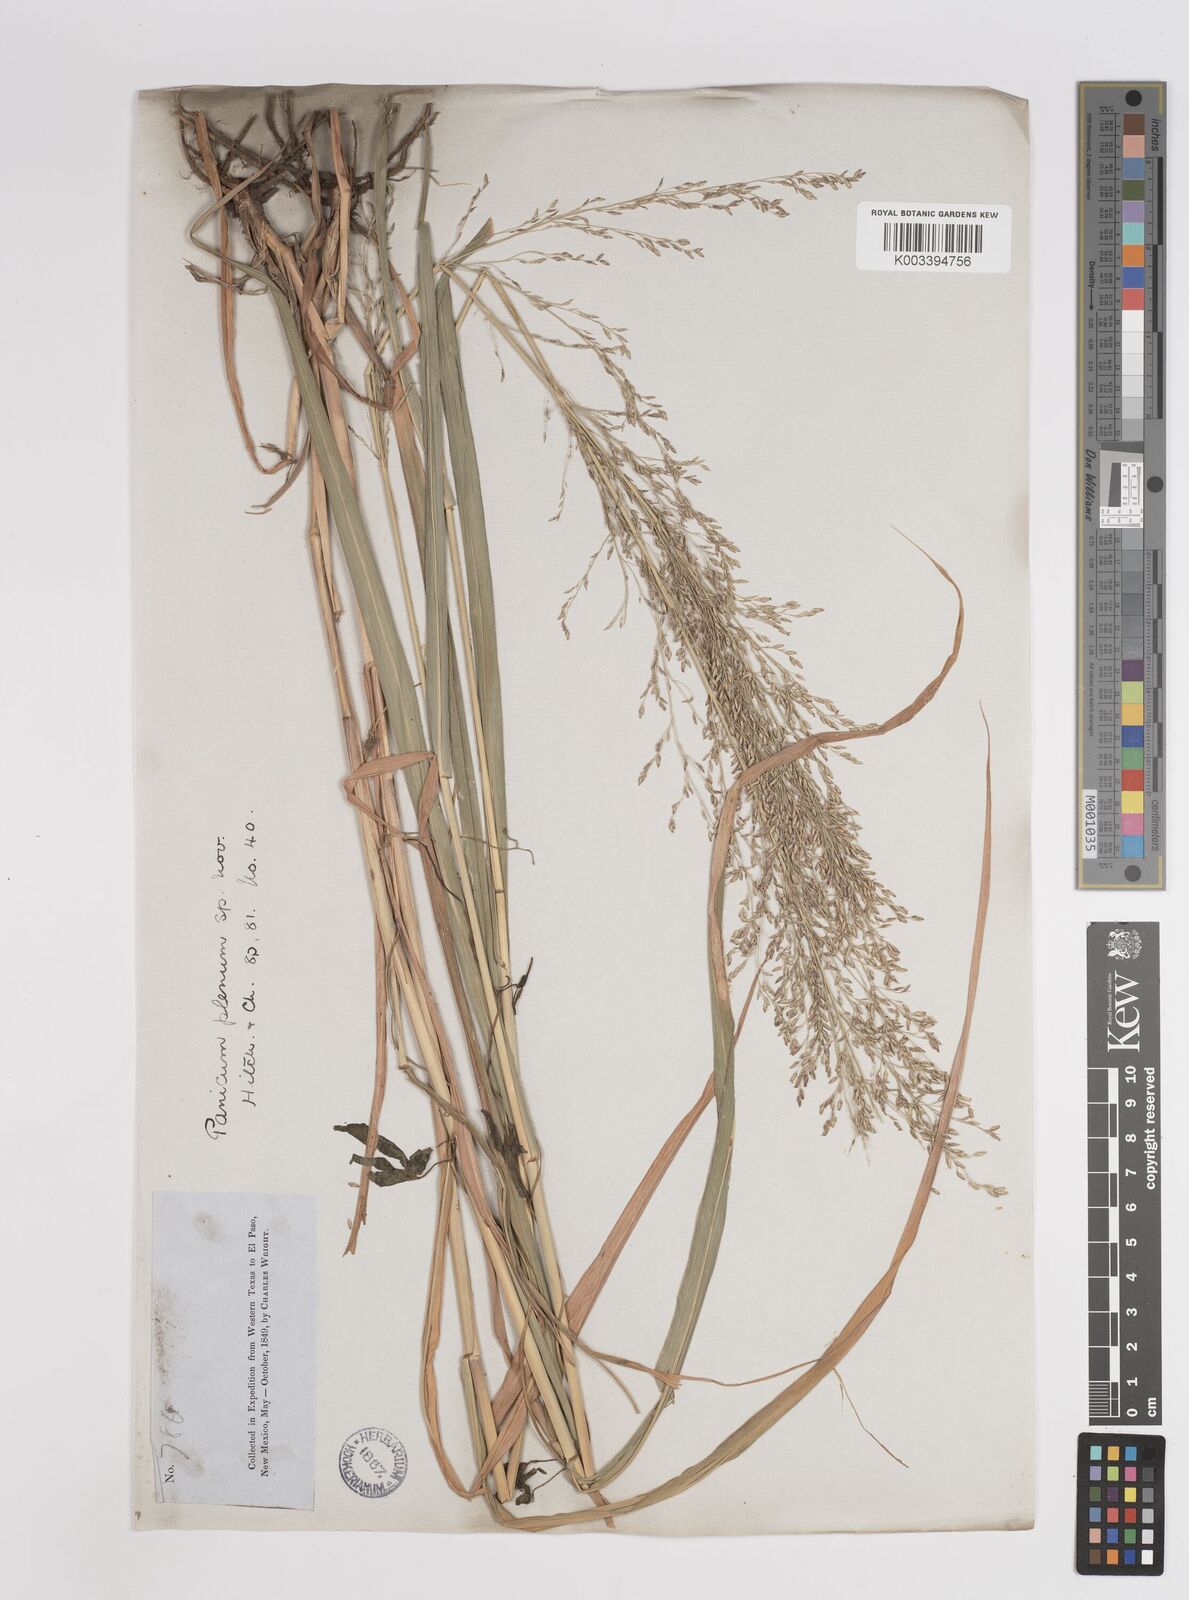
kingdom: Plantae
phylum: Tracheophyta
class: Liliopsida
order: Poales
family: Poaceae
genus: Panicum
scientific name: Panicum plenum
